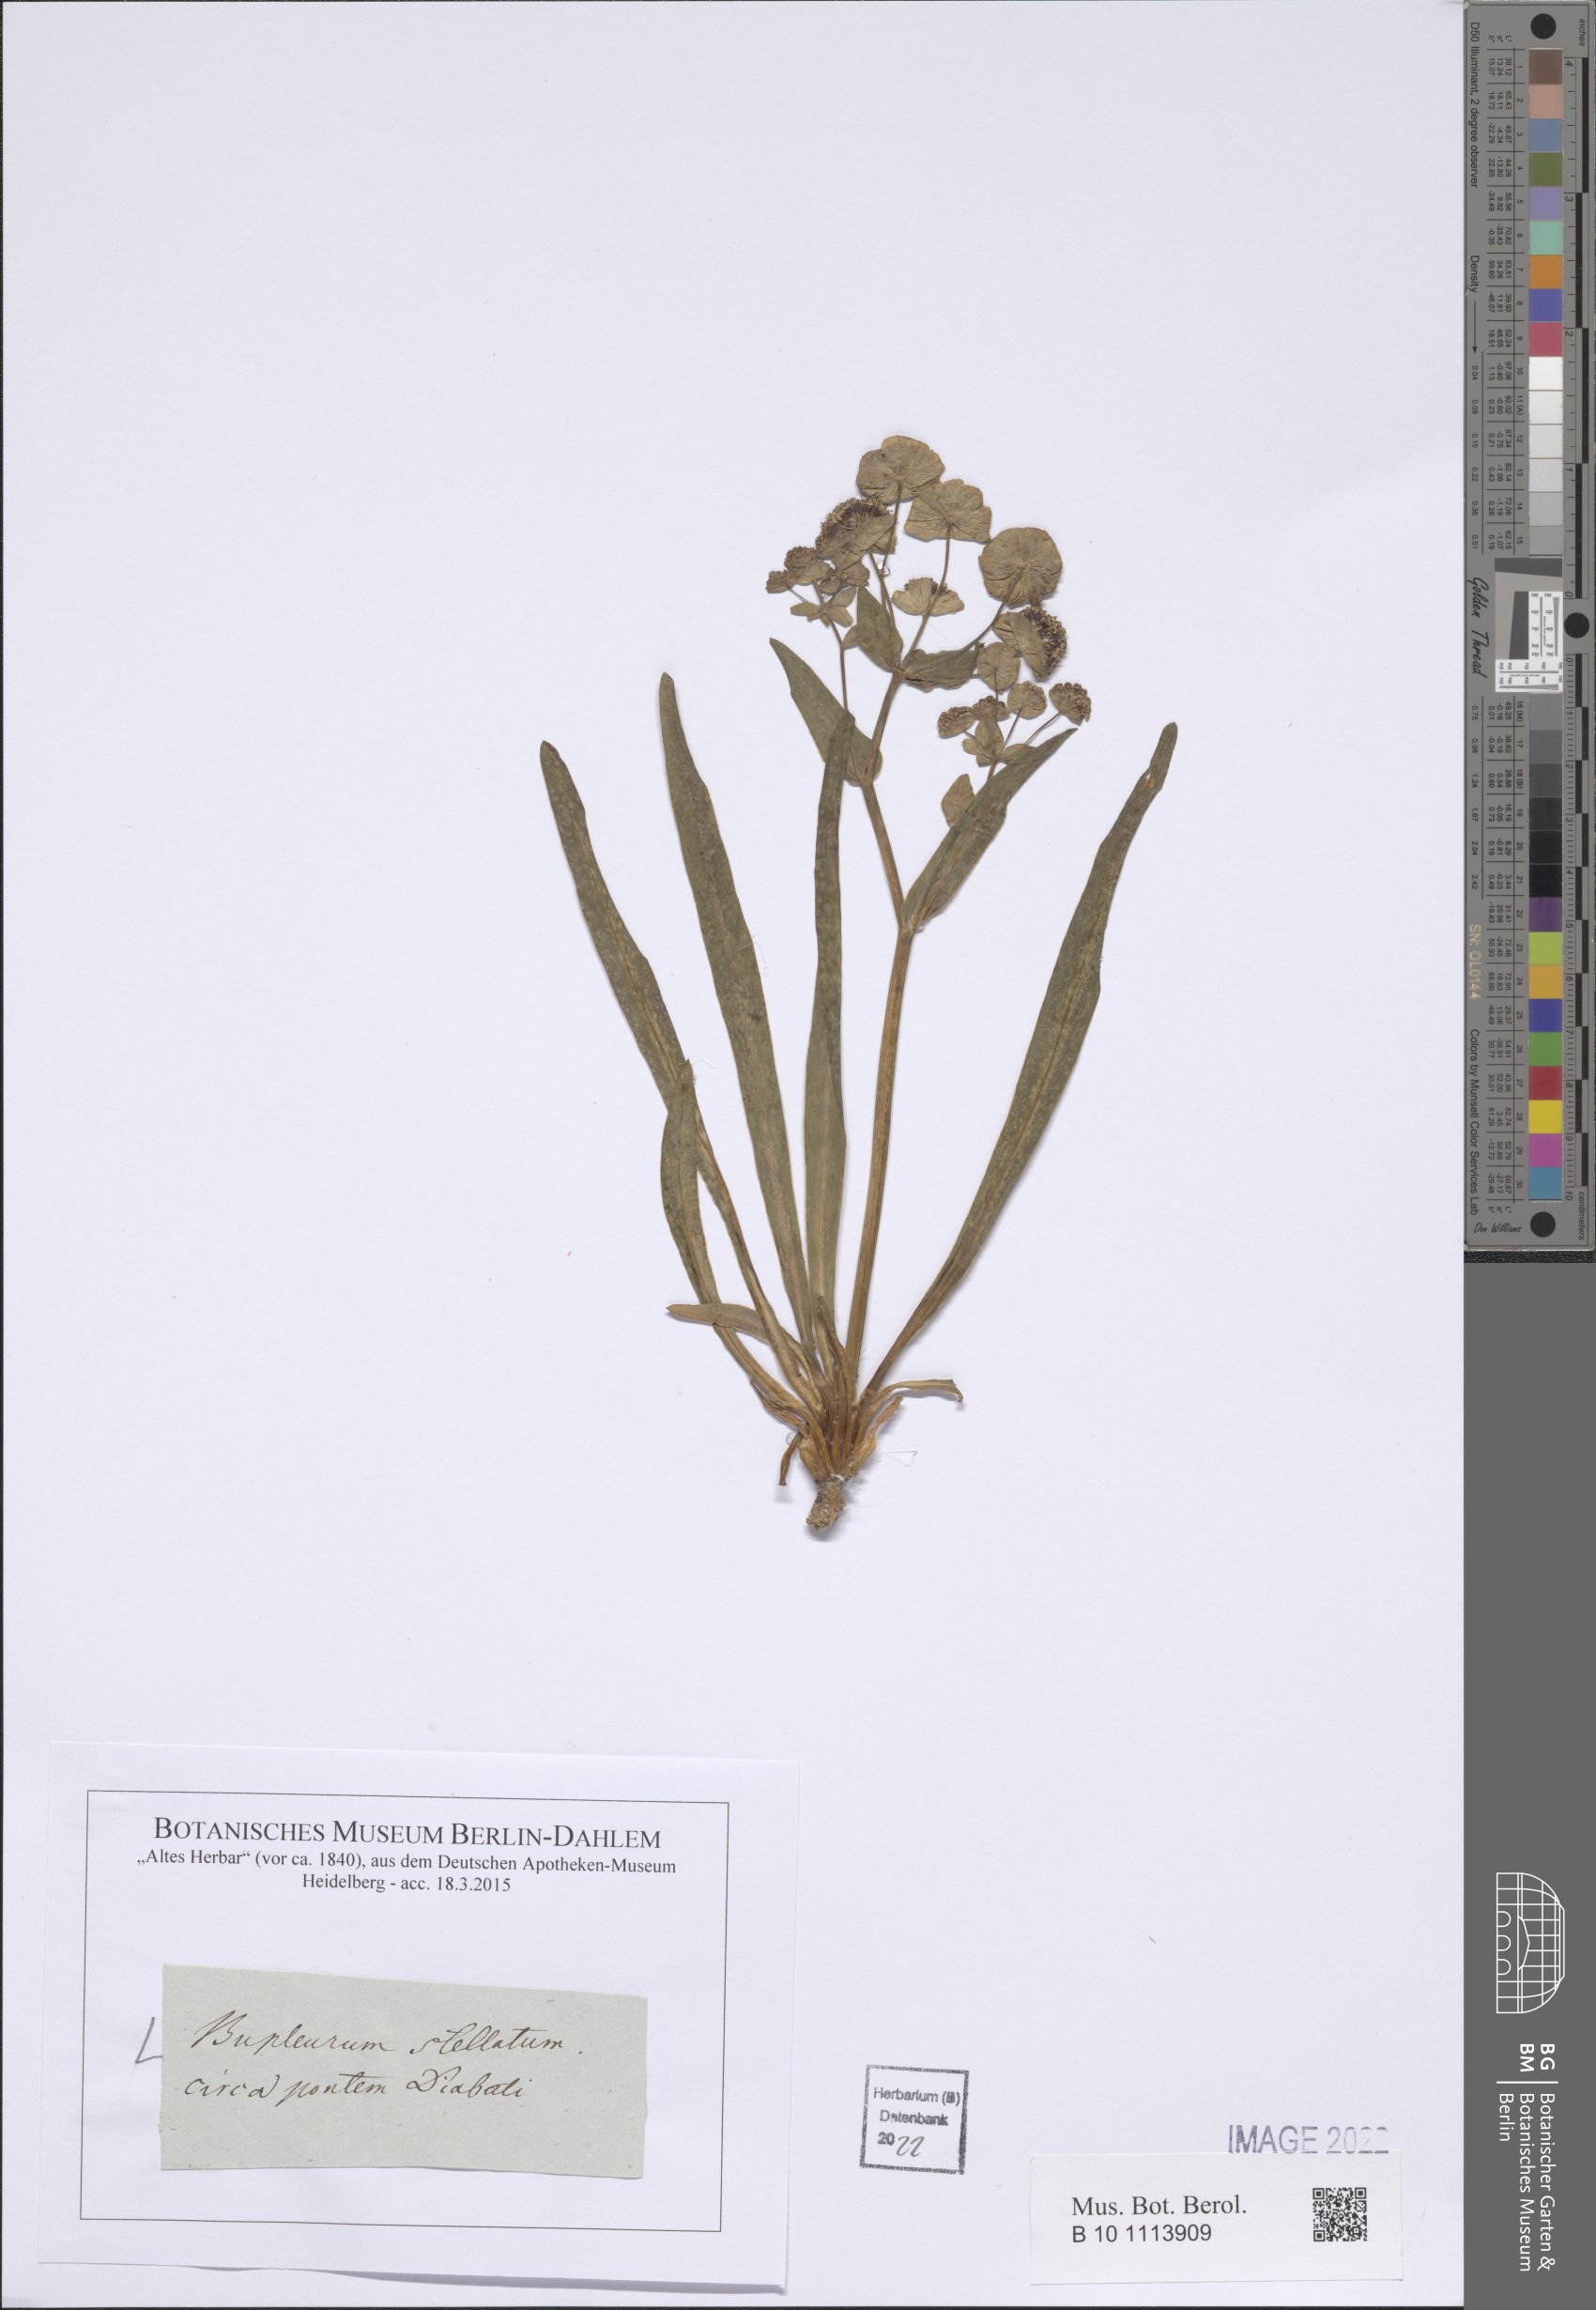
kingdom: Plantae
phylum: Tracheophyta
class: Magnoliopsida
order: Apiales
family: Apiaceae
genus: Bupleurum
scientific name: Bupleurum stellatum
